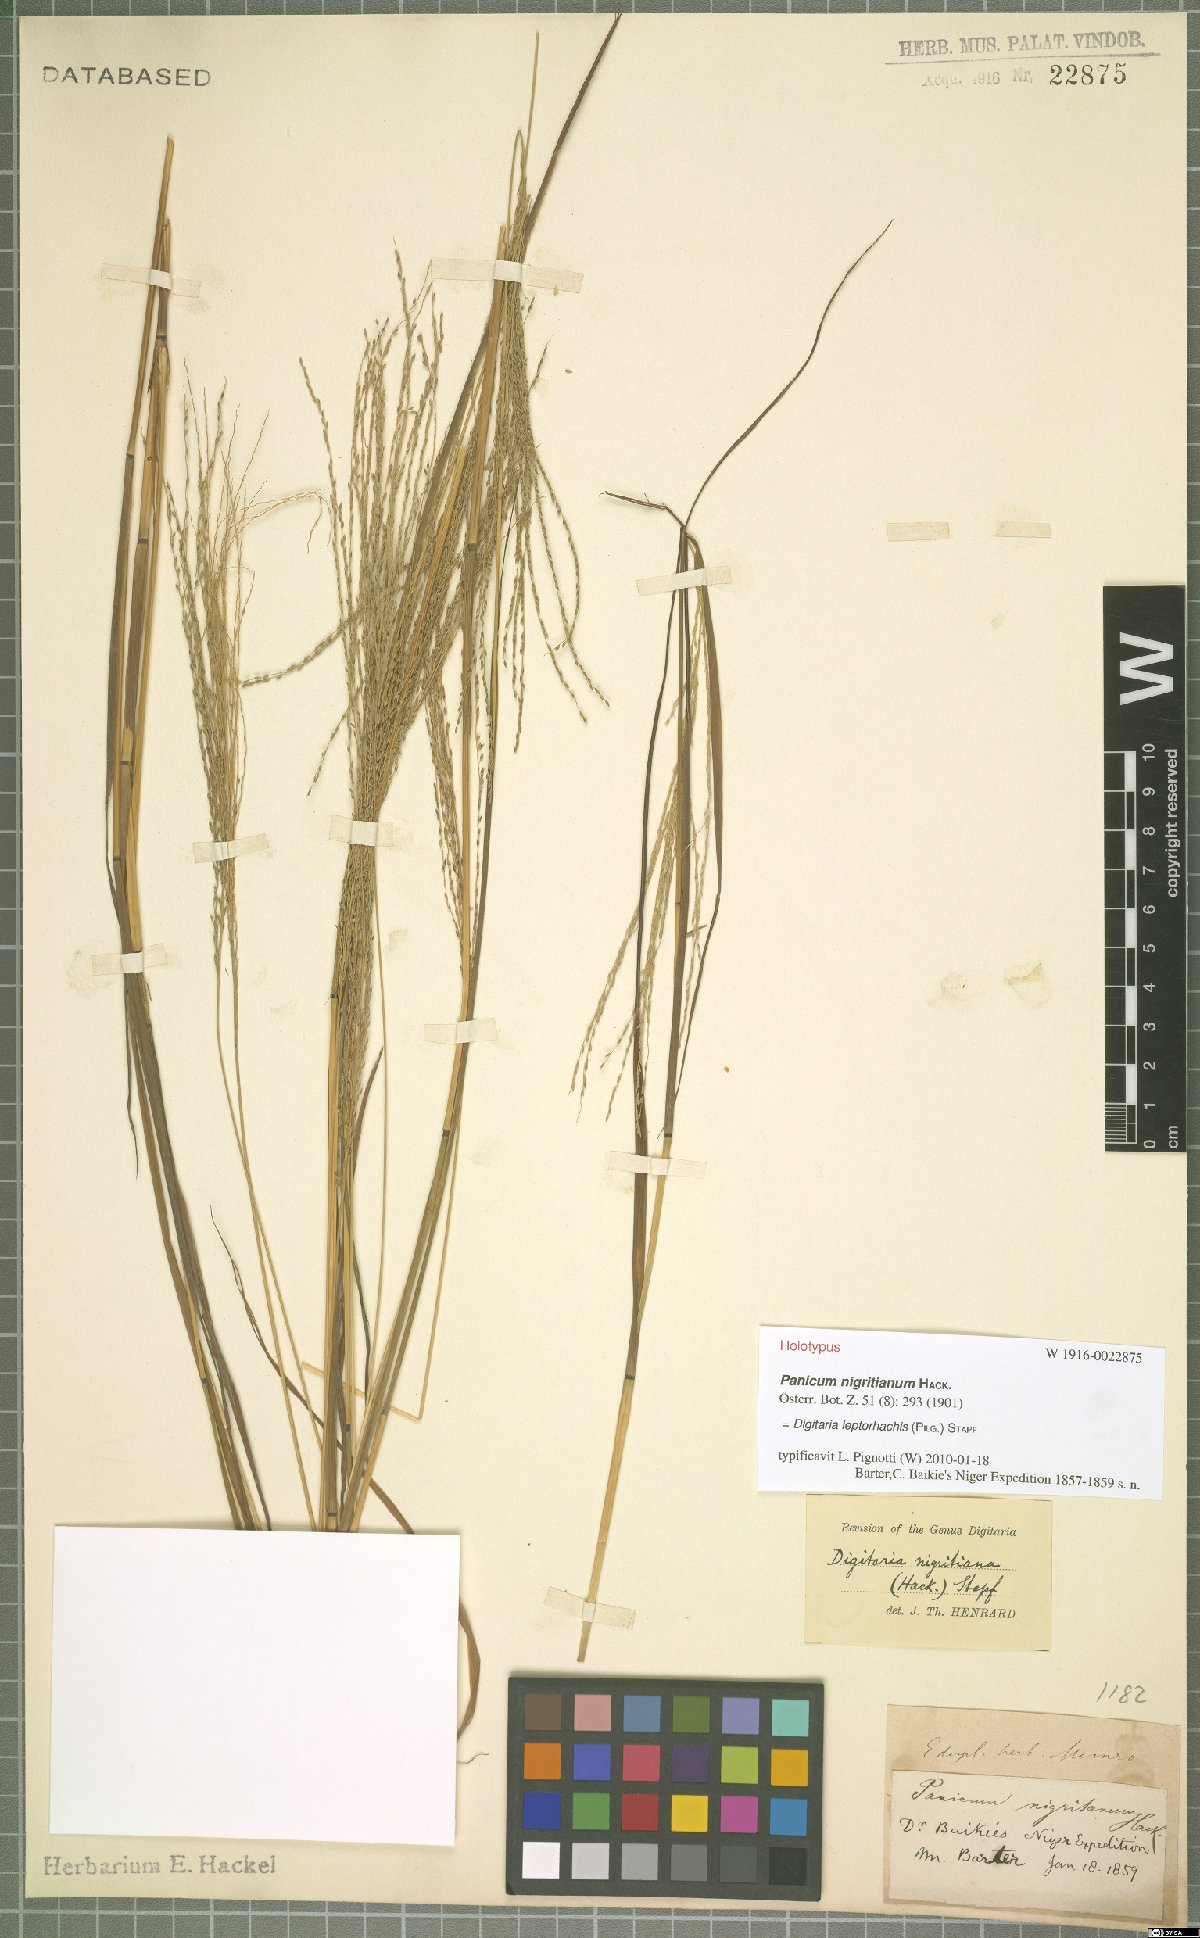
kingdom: Plantae
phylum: Tracheophyta
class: Liliopsida
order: Poales
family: Poaceae
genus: Digitaria
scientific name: Digitaria leptorhachis
